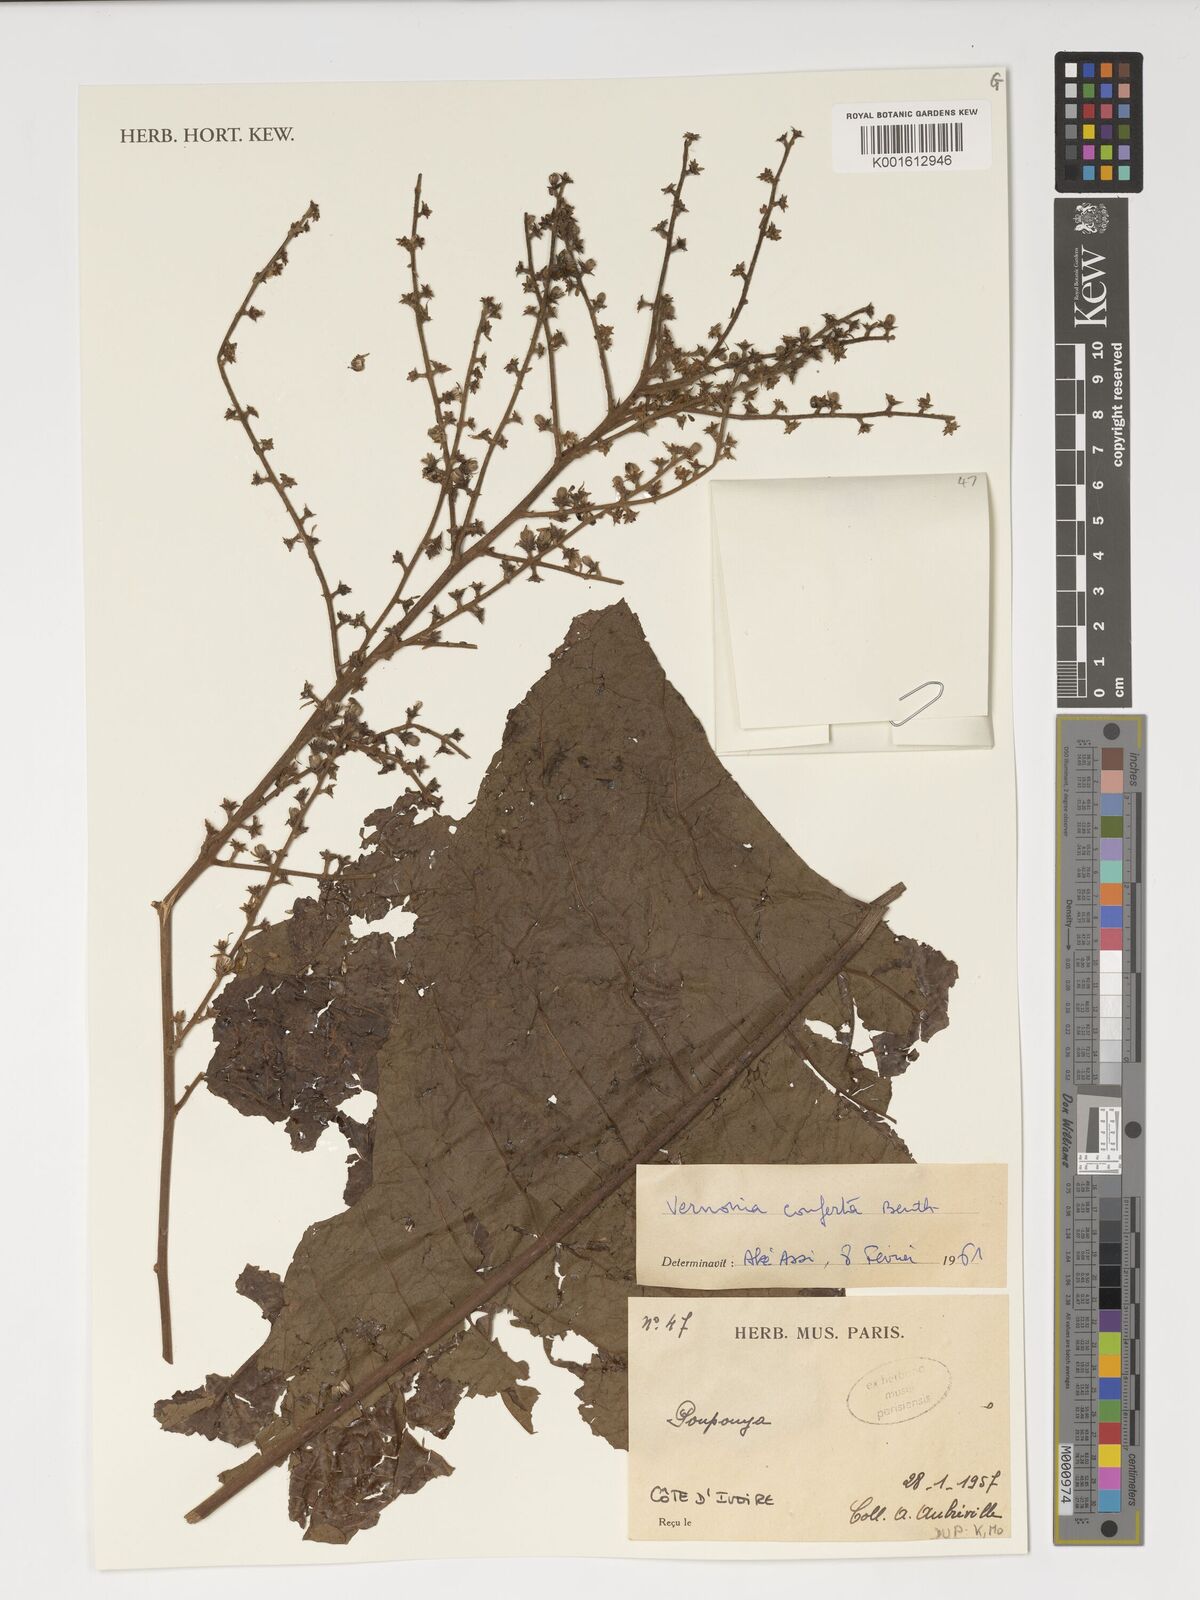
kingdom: Plantae
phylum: Tracheophyta
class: Magnoliopsida
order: Asterales
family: Asteraceae
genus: Monosis
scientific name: Monosis conferta
